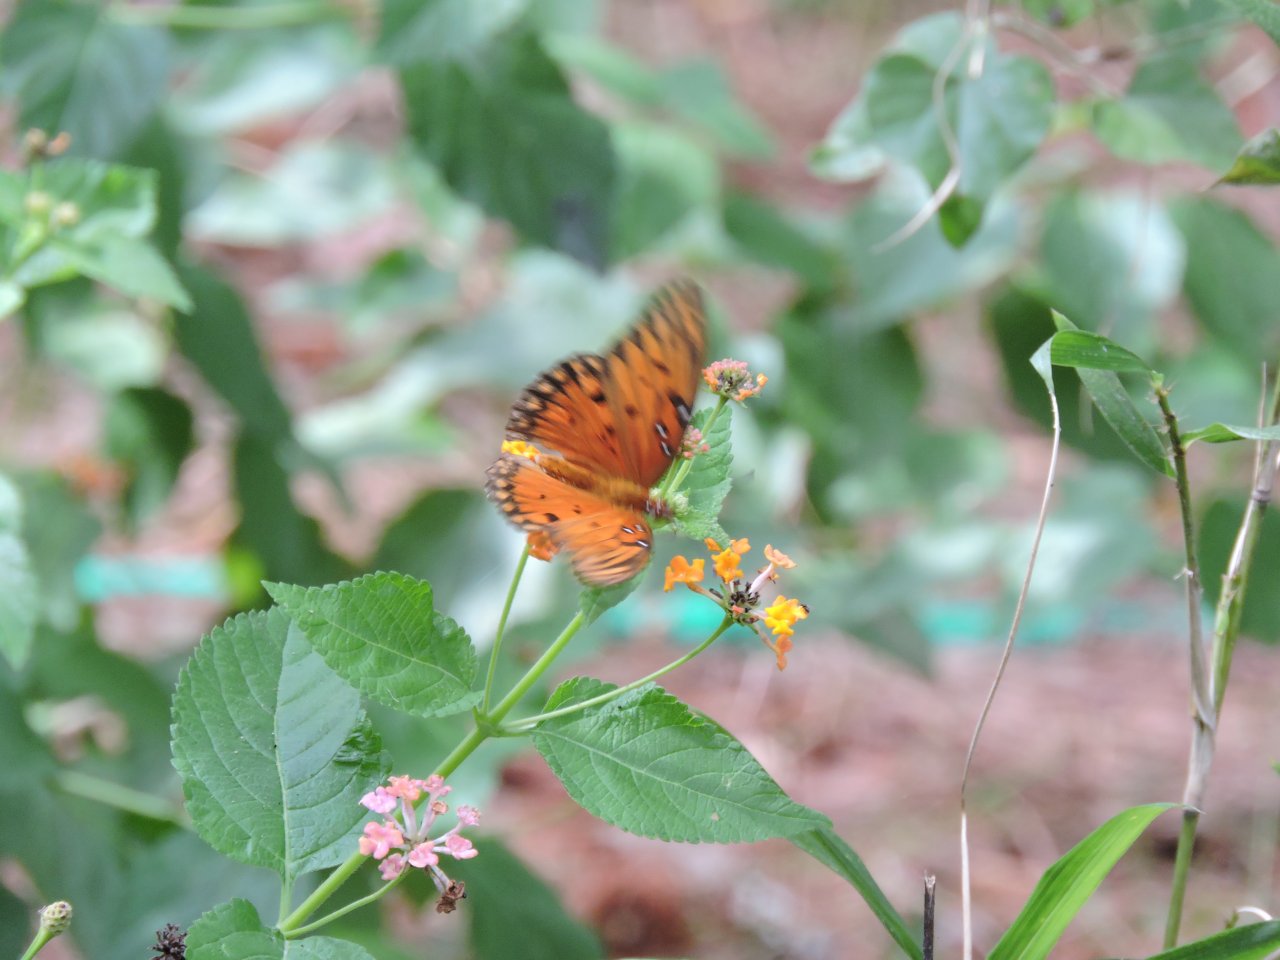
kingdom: Animalia
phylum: Arthropoda
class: Insecta
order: Lepidoptera
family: Nymphalidae
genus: Dione
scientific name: Dione vanillae
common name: Gulf Fritillary
